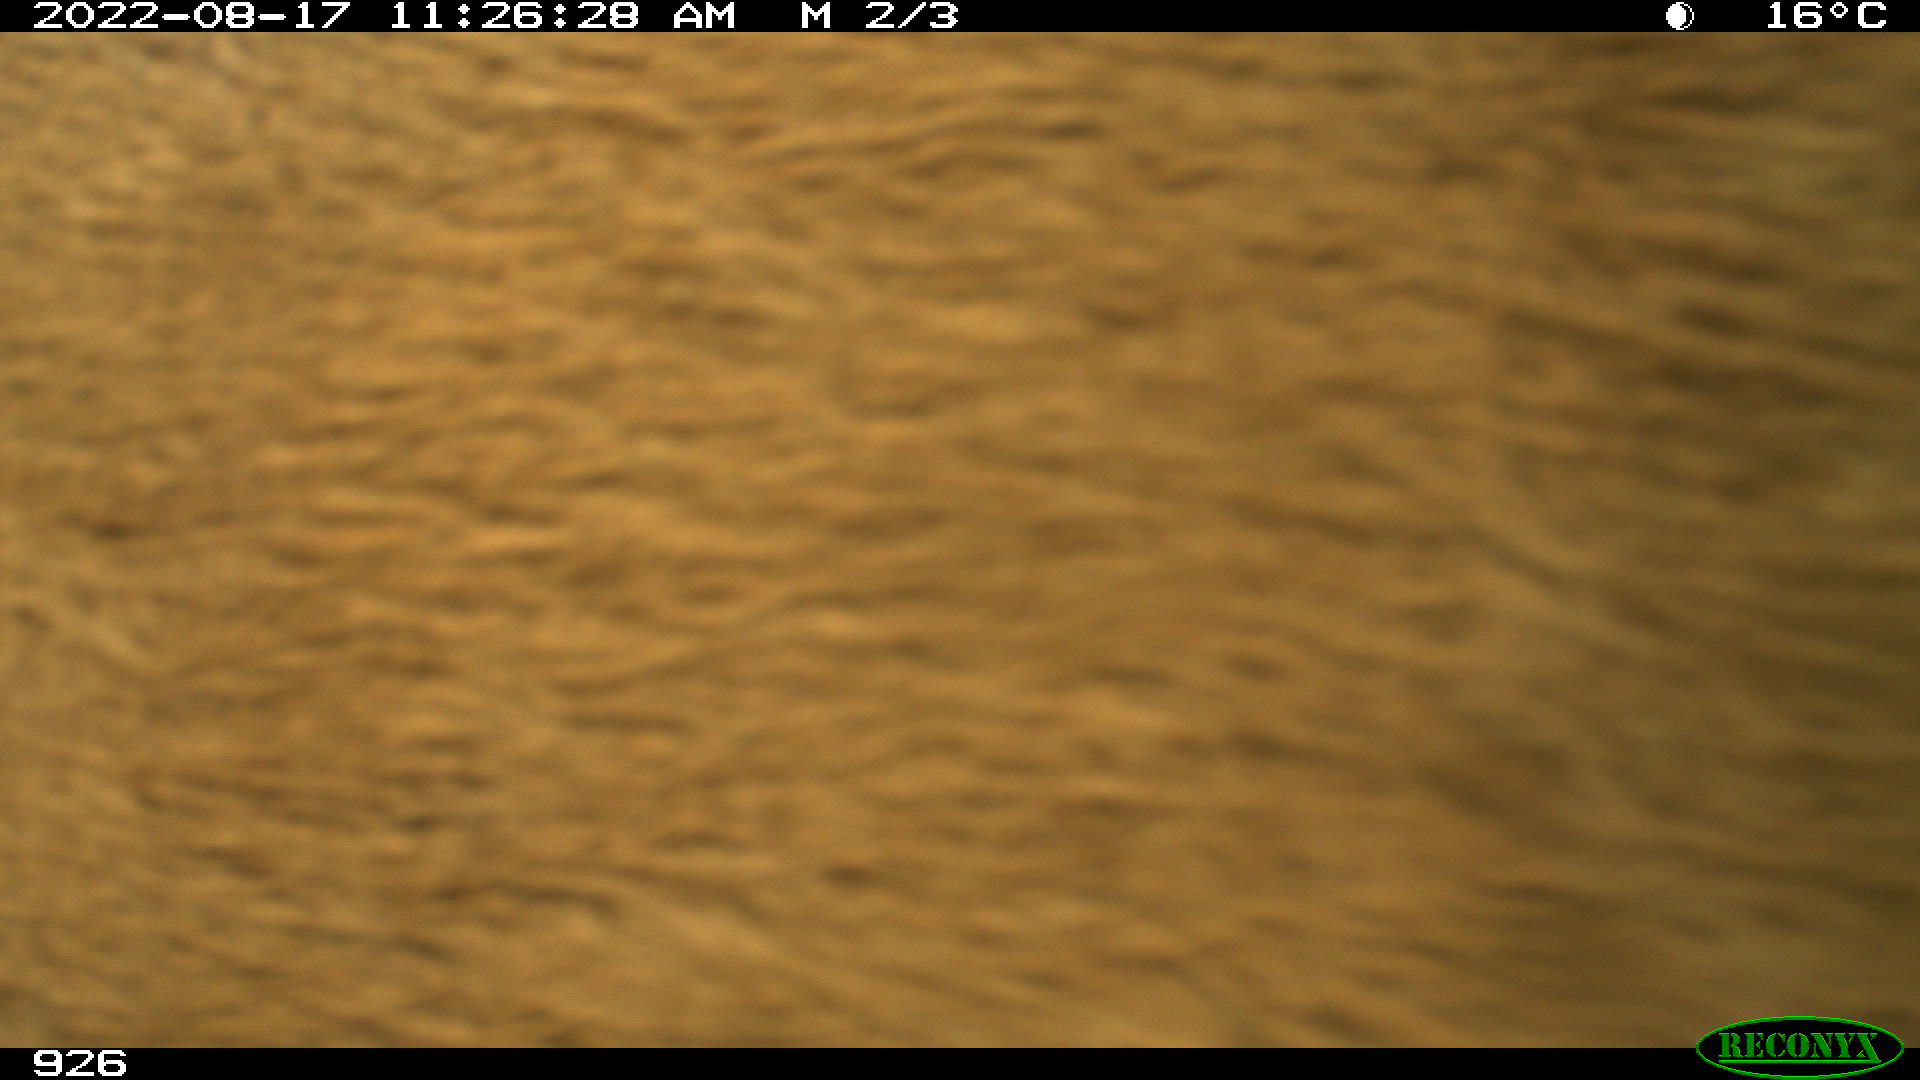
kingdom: Animalia
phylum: Chordata
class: Mammalia
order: Artiodactyla
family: Bovidae
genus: Bos
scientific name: Bos taurus
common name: Domesticated cattle
